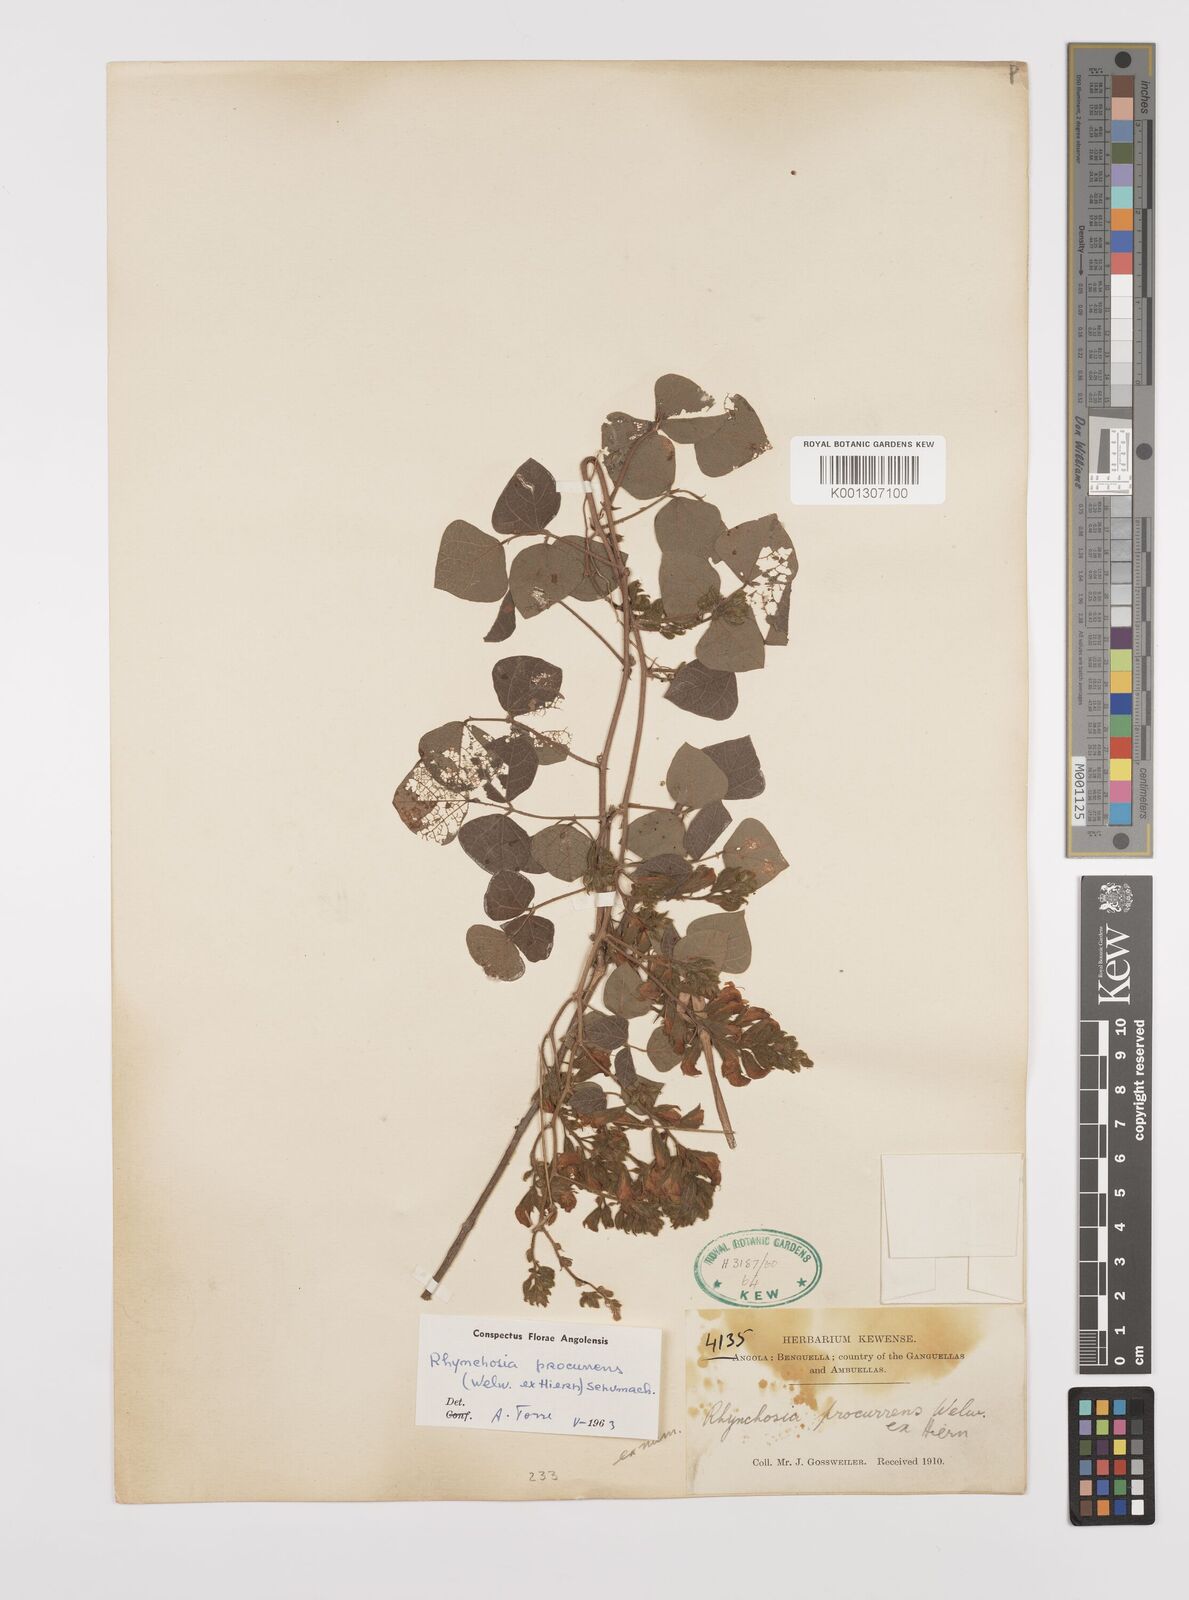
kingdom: Plantae
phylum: Tracheophyta
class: Magnoliopsida
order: Fabales
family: Fabaceae
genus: Rhynchosia
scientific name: Rhynchosia procurrens
